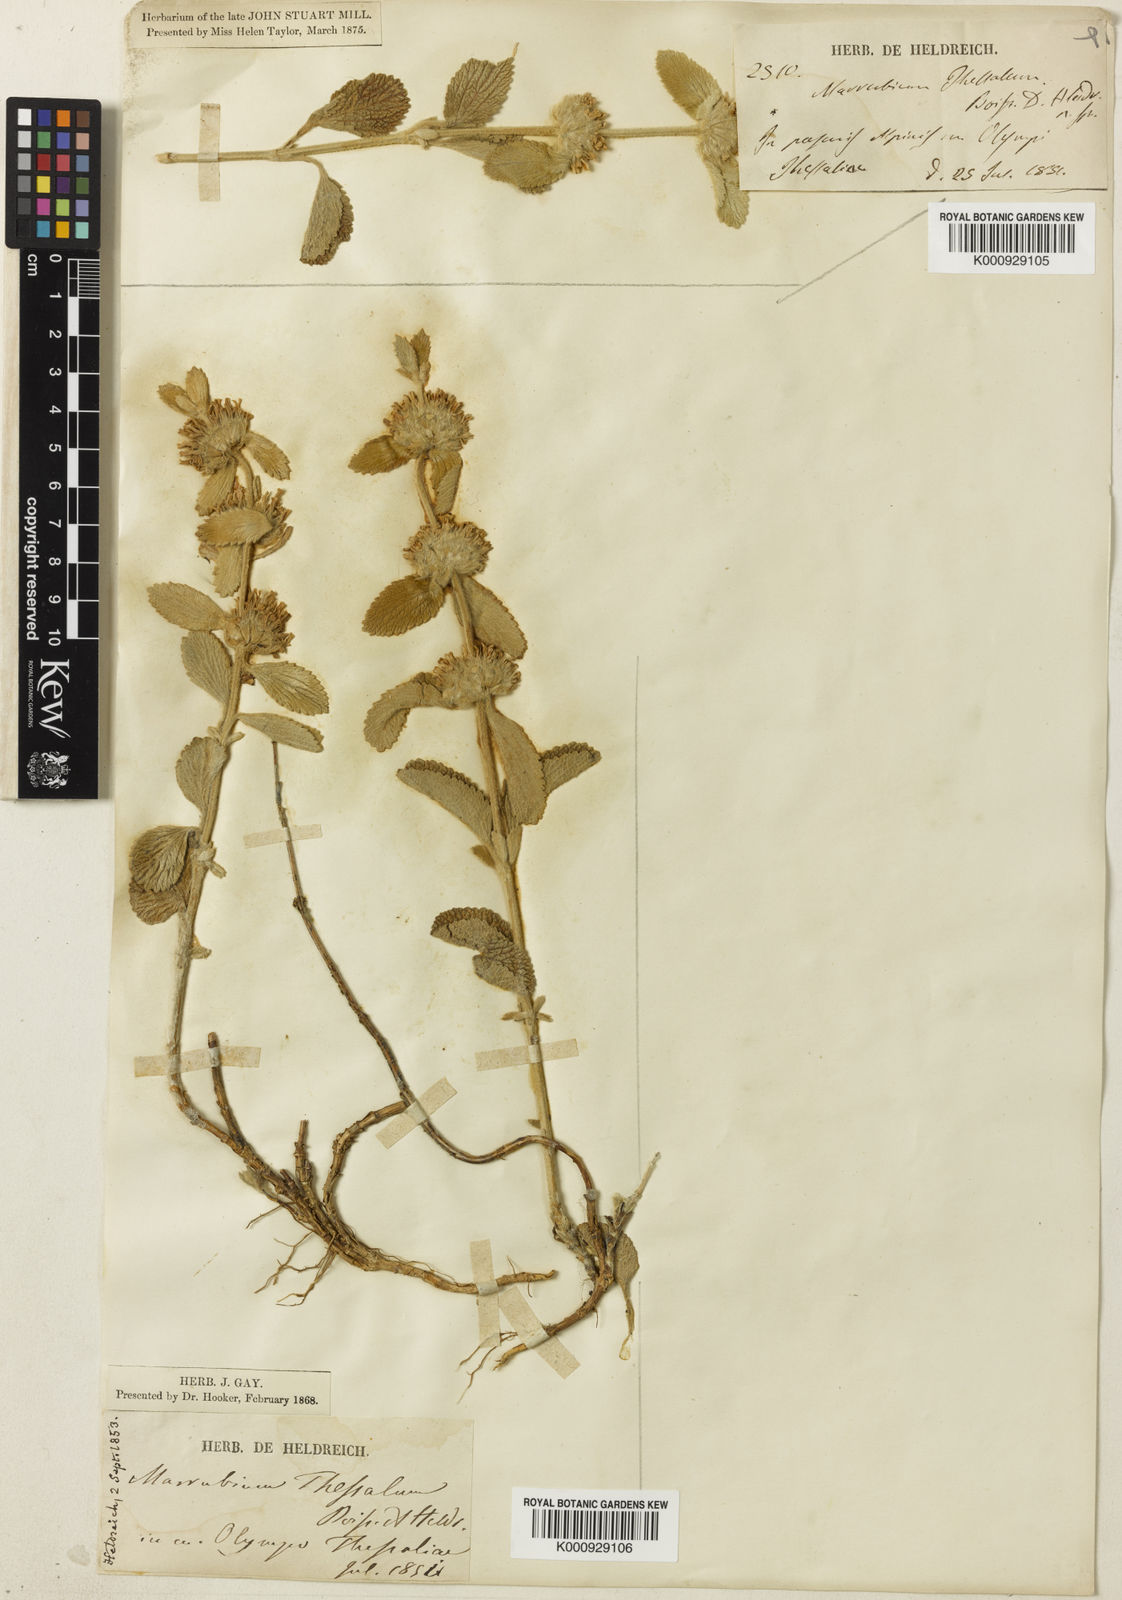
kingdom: Plantae
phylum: Tracheophyta
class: Magnoliopsida
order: Lamiales
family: Lamiaceae
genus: Marrubium
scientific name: Marrubium thessalum
